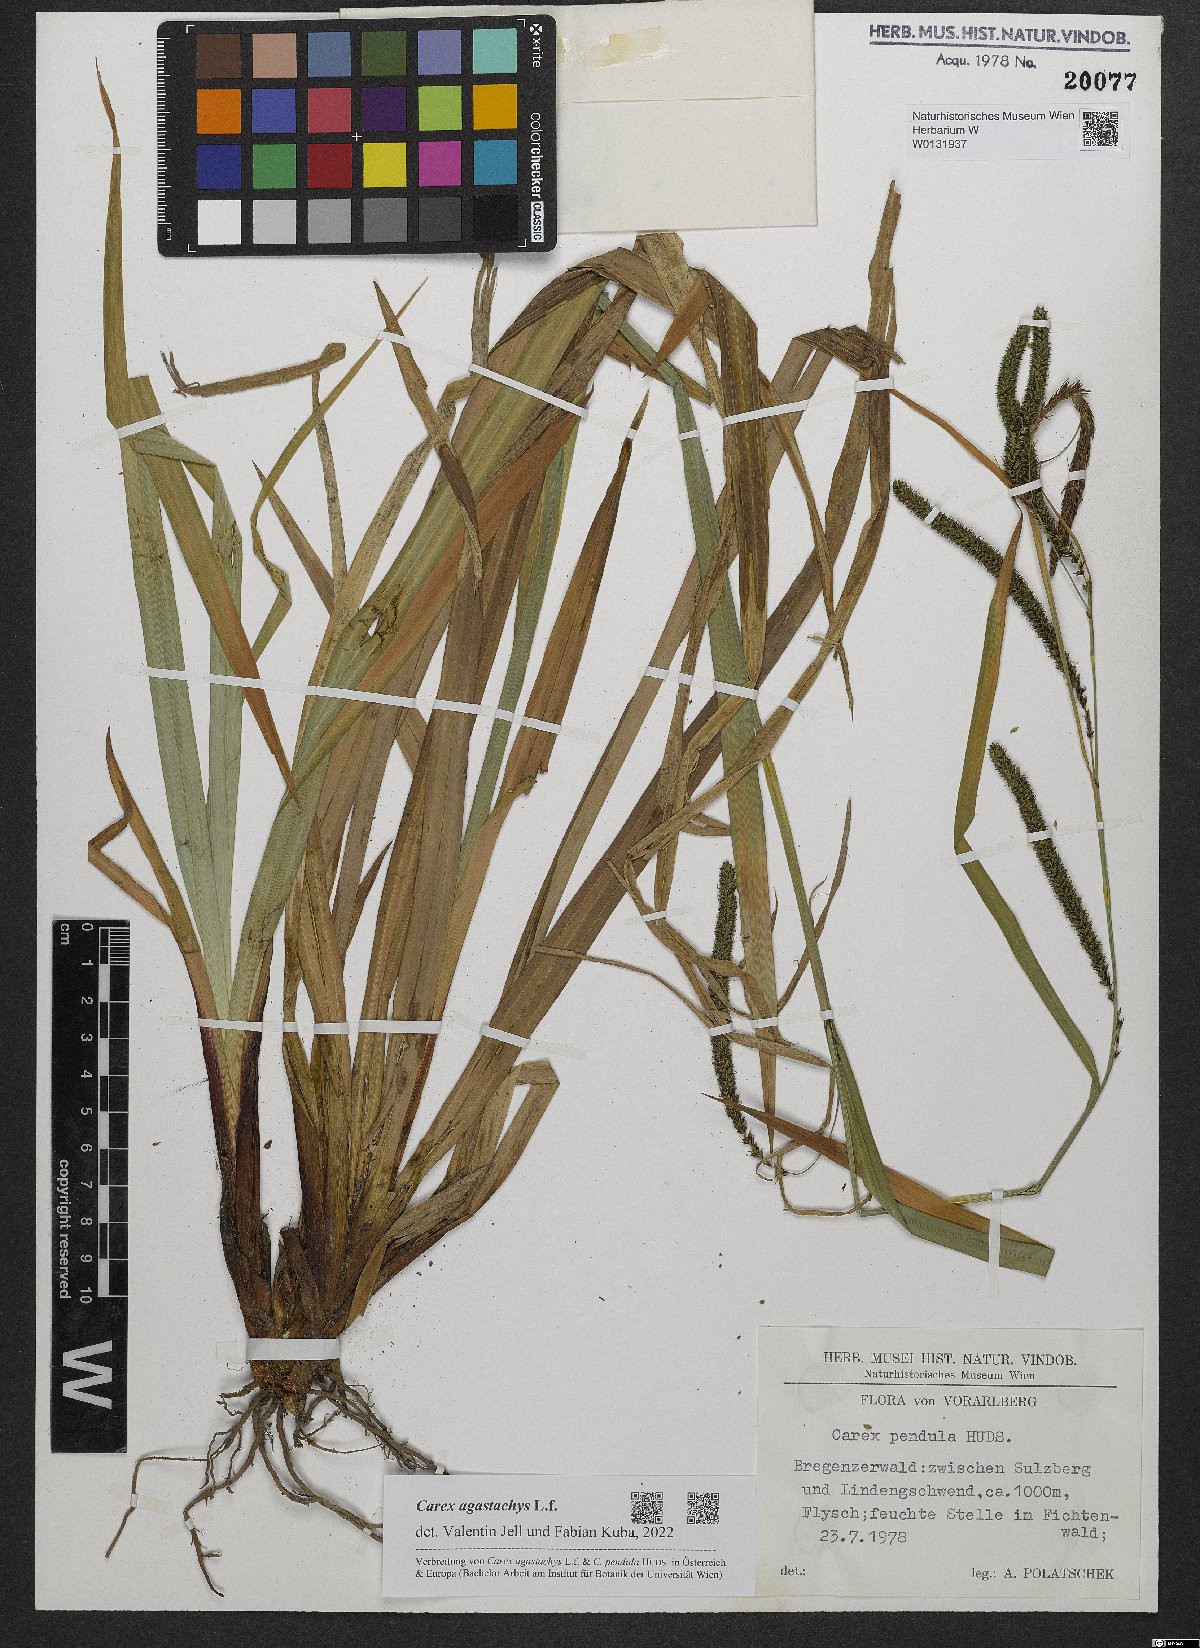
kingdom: Plantae
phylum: Tracheophyta
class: Liliopsida
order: Poales
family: Cyperaceae
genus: Carex
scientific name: Carex agastachys
